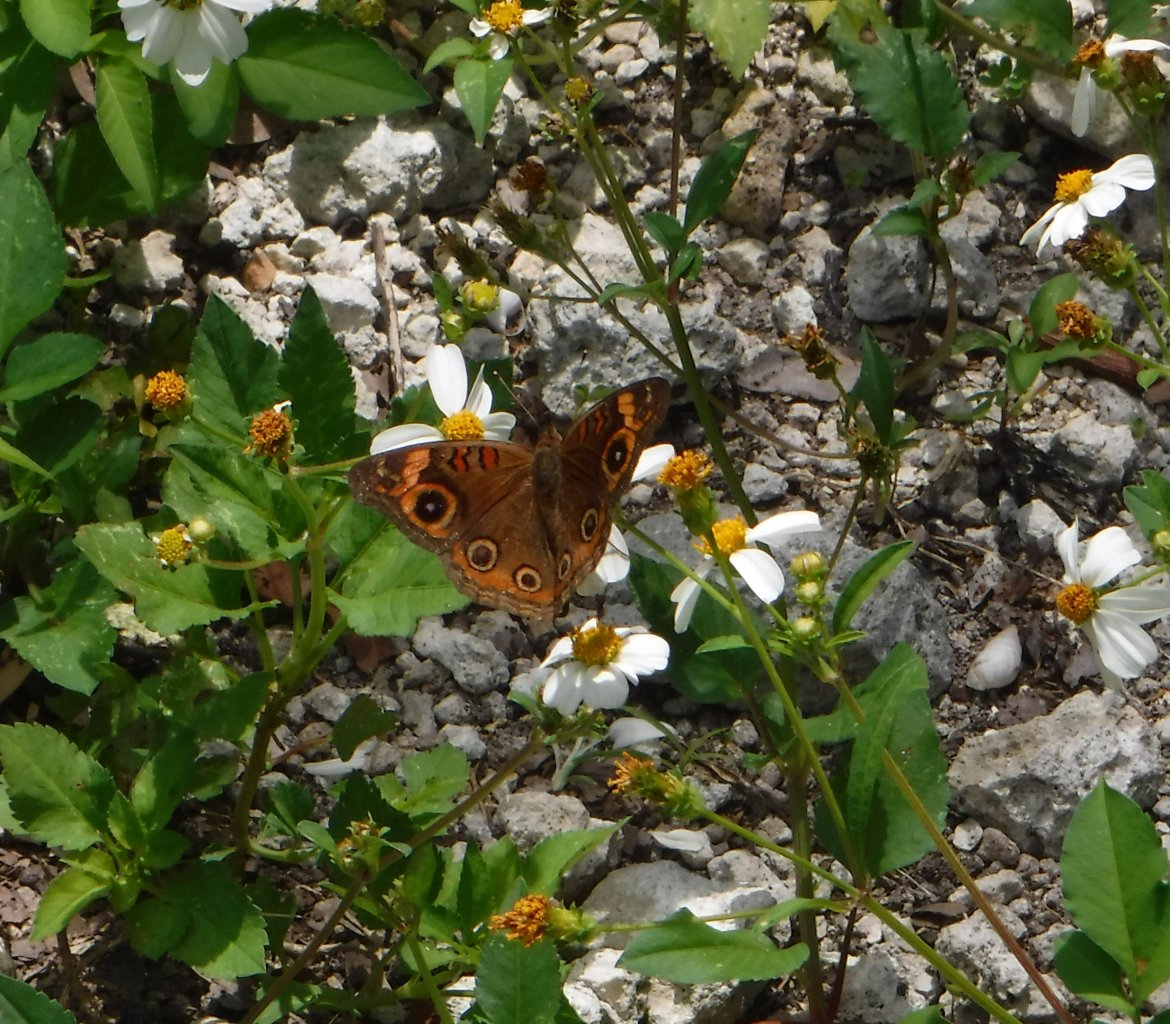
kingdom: Animalia
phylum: Arthropoda
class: Insecta
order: Lepidoptera
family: Nymphalidae
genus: Junonia
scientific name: Junonia evarete
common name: Mangrove Buckeye
